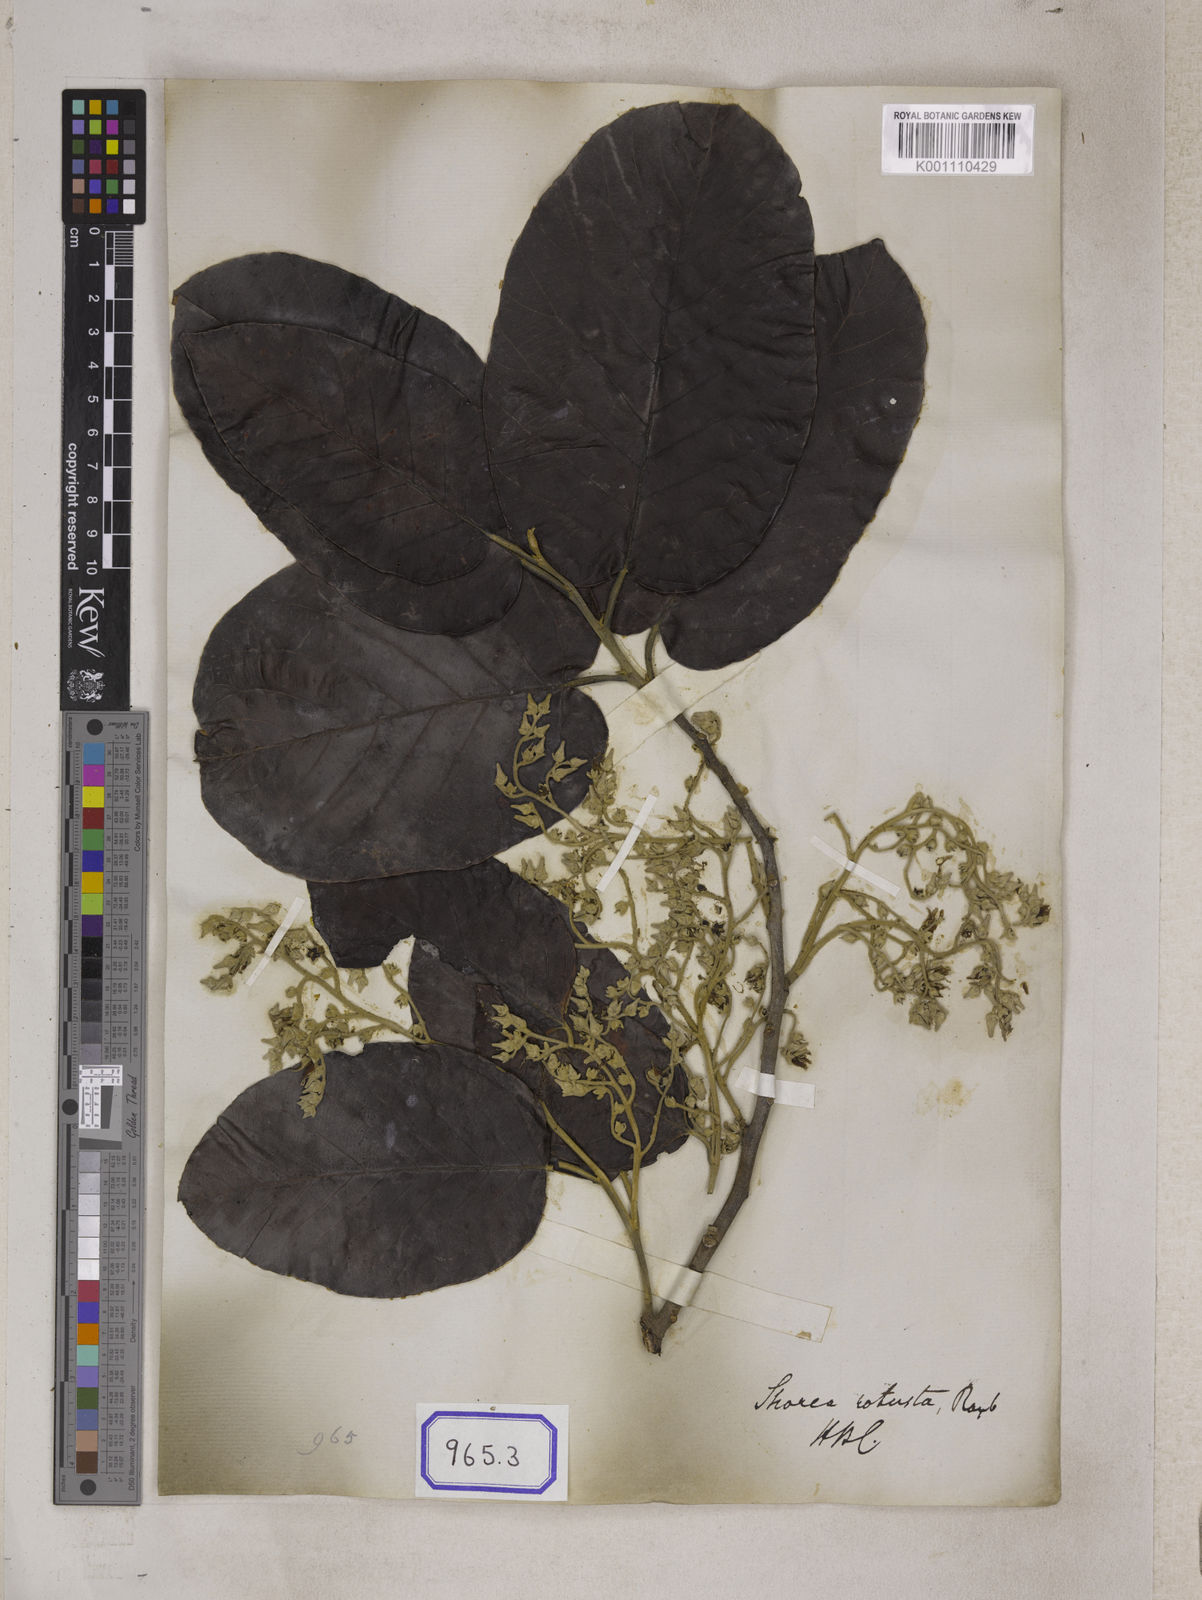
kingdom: Plantae
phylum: Tracheophyta
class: Magnoliopsida
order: Malvales
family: Dipterocarpaceae
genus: Shorea
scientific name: Shorea
